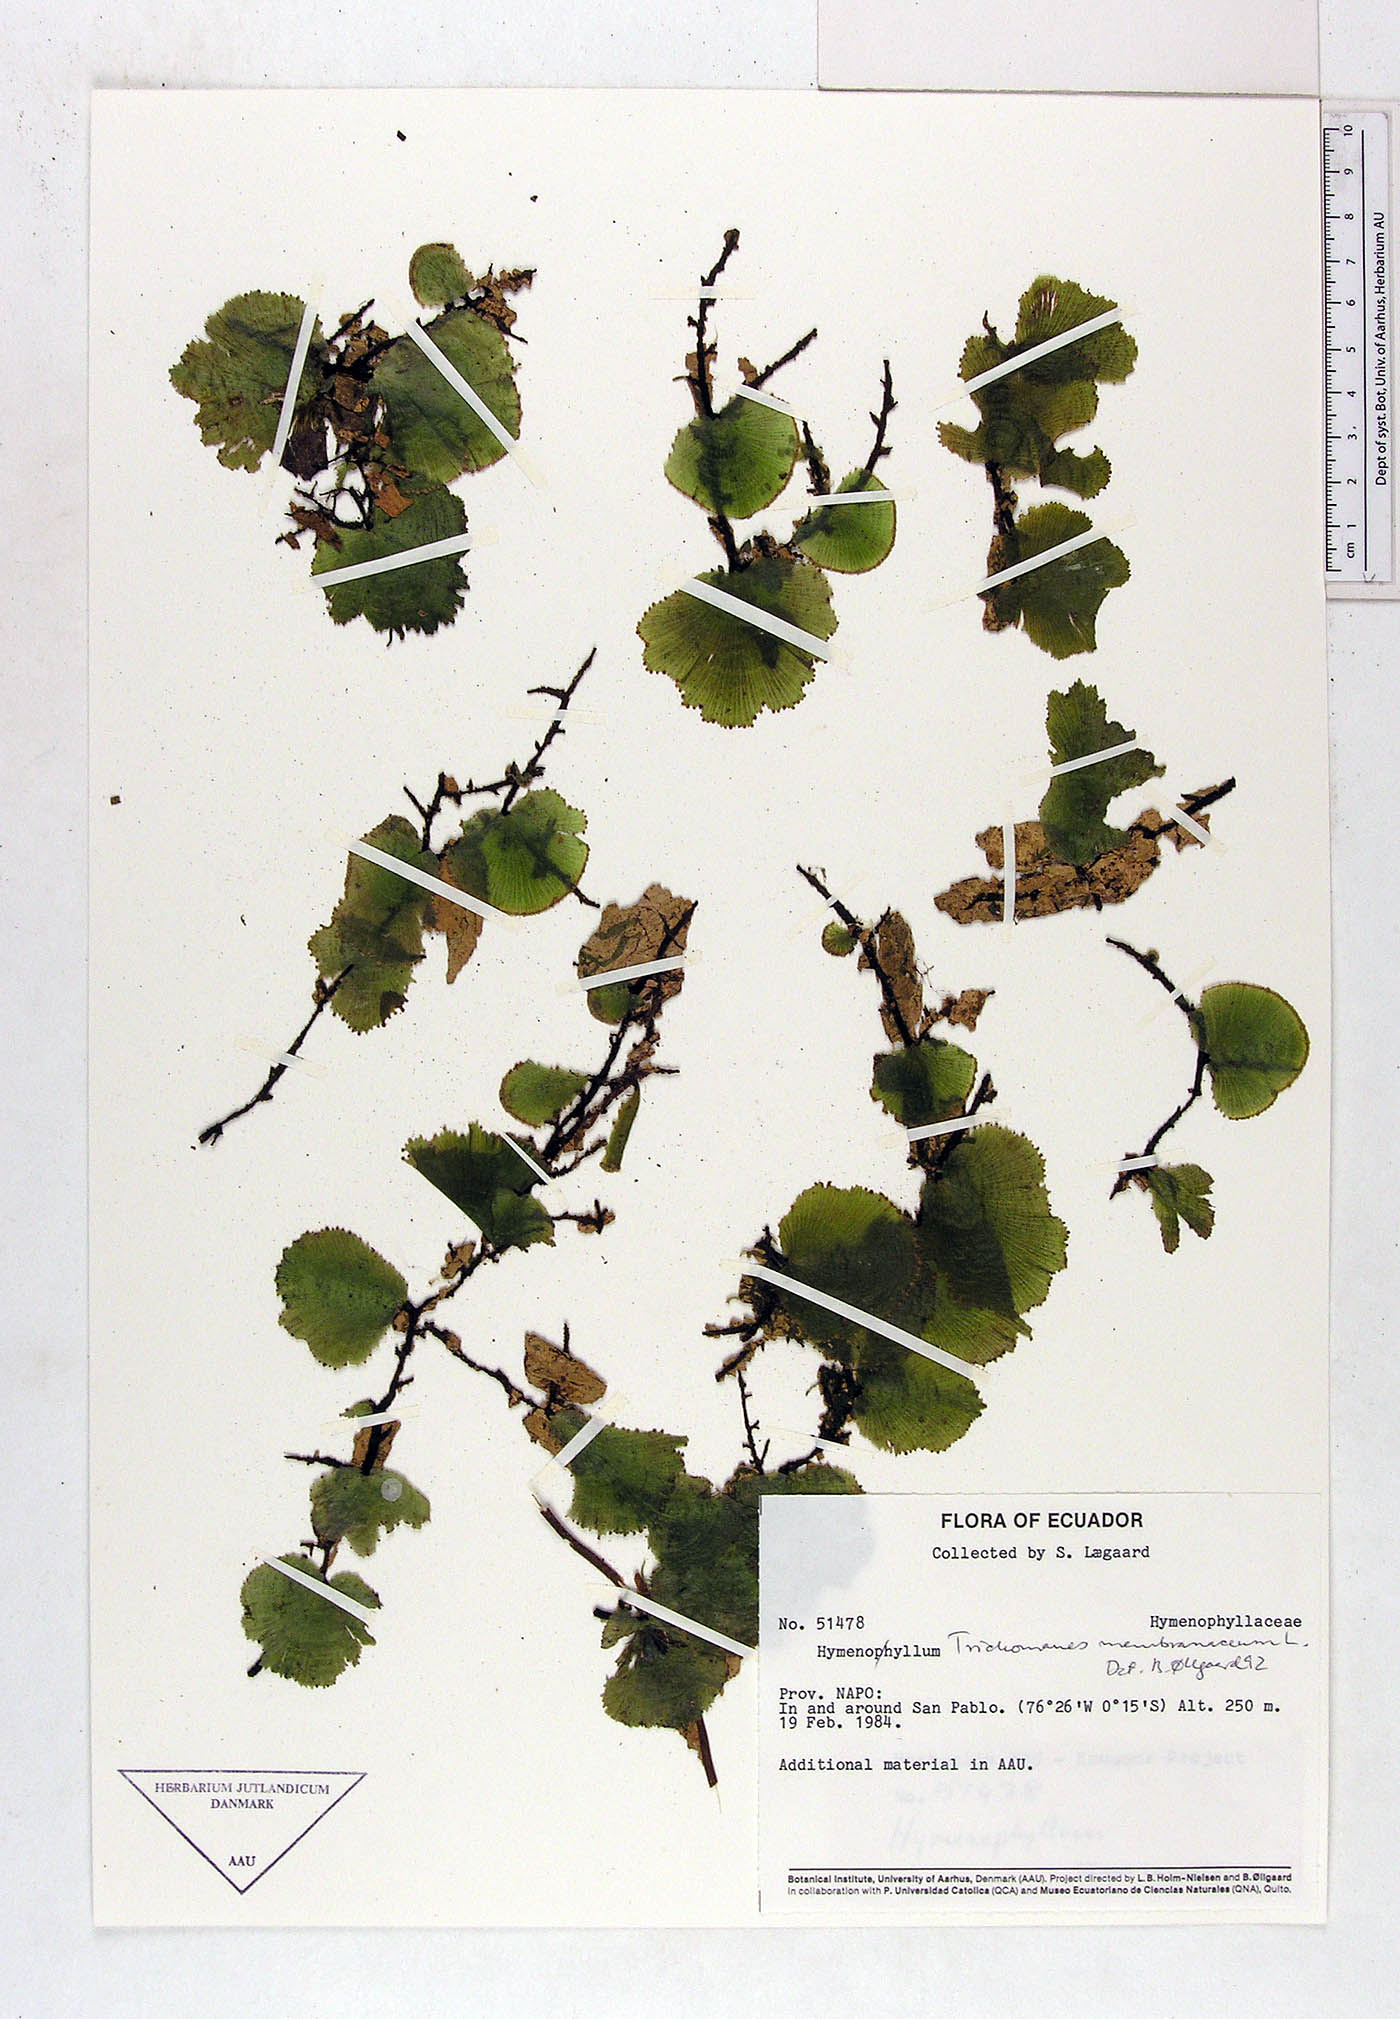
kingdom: Plantae
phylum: Tracheophyta
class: Polypodiopsida
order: Hymenophyllales
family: Hymenophyllaceae
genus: Hymenophyllum
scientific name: Hymenophyllum
